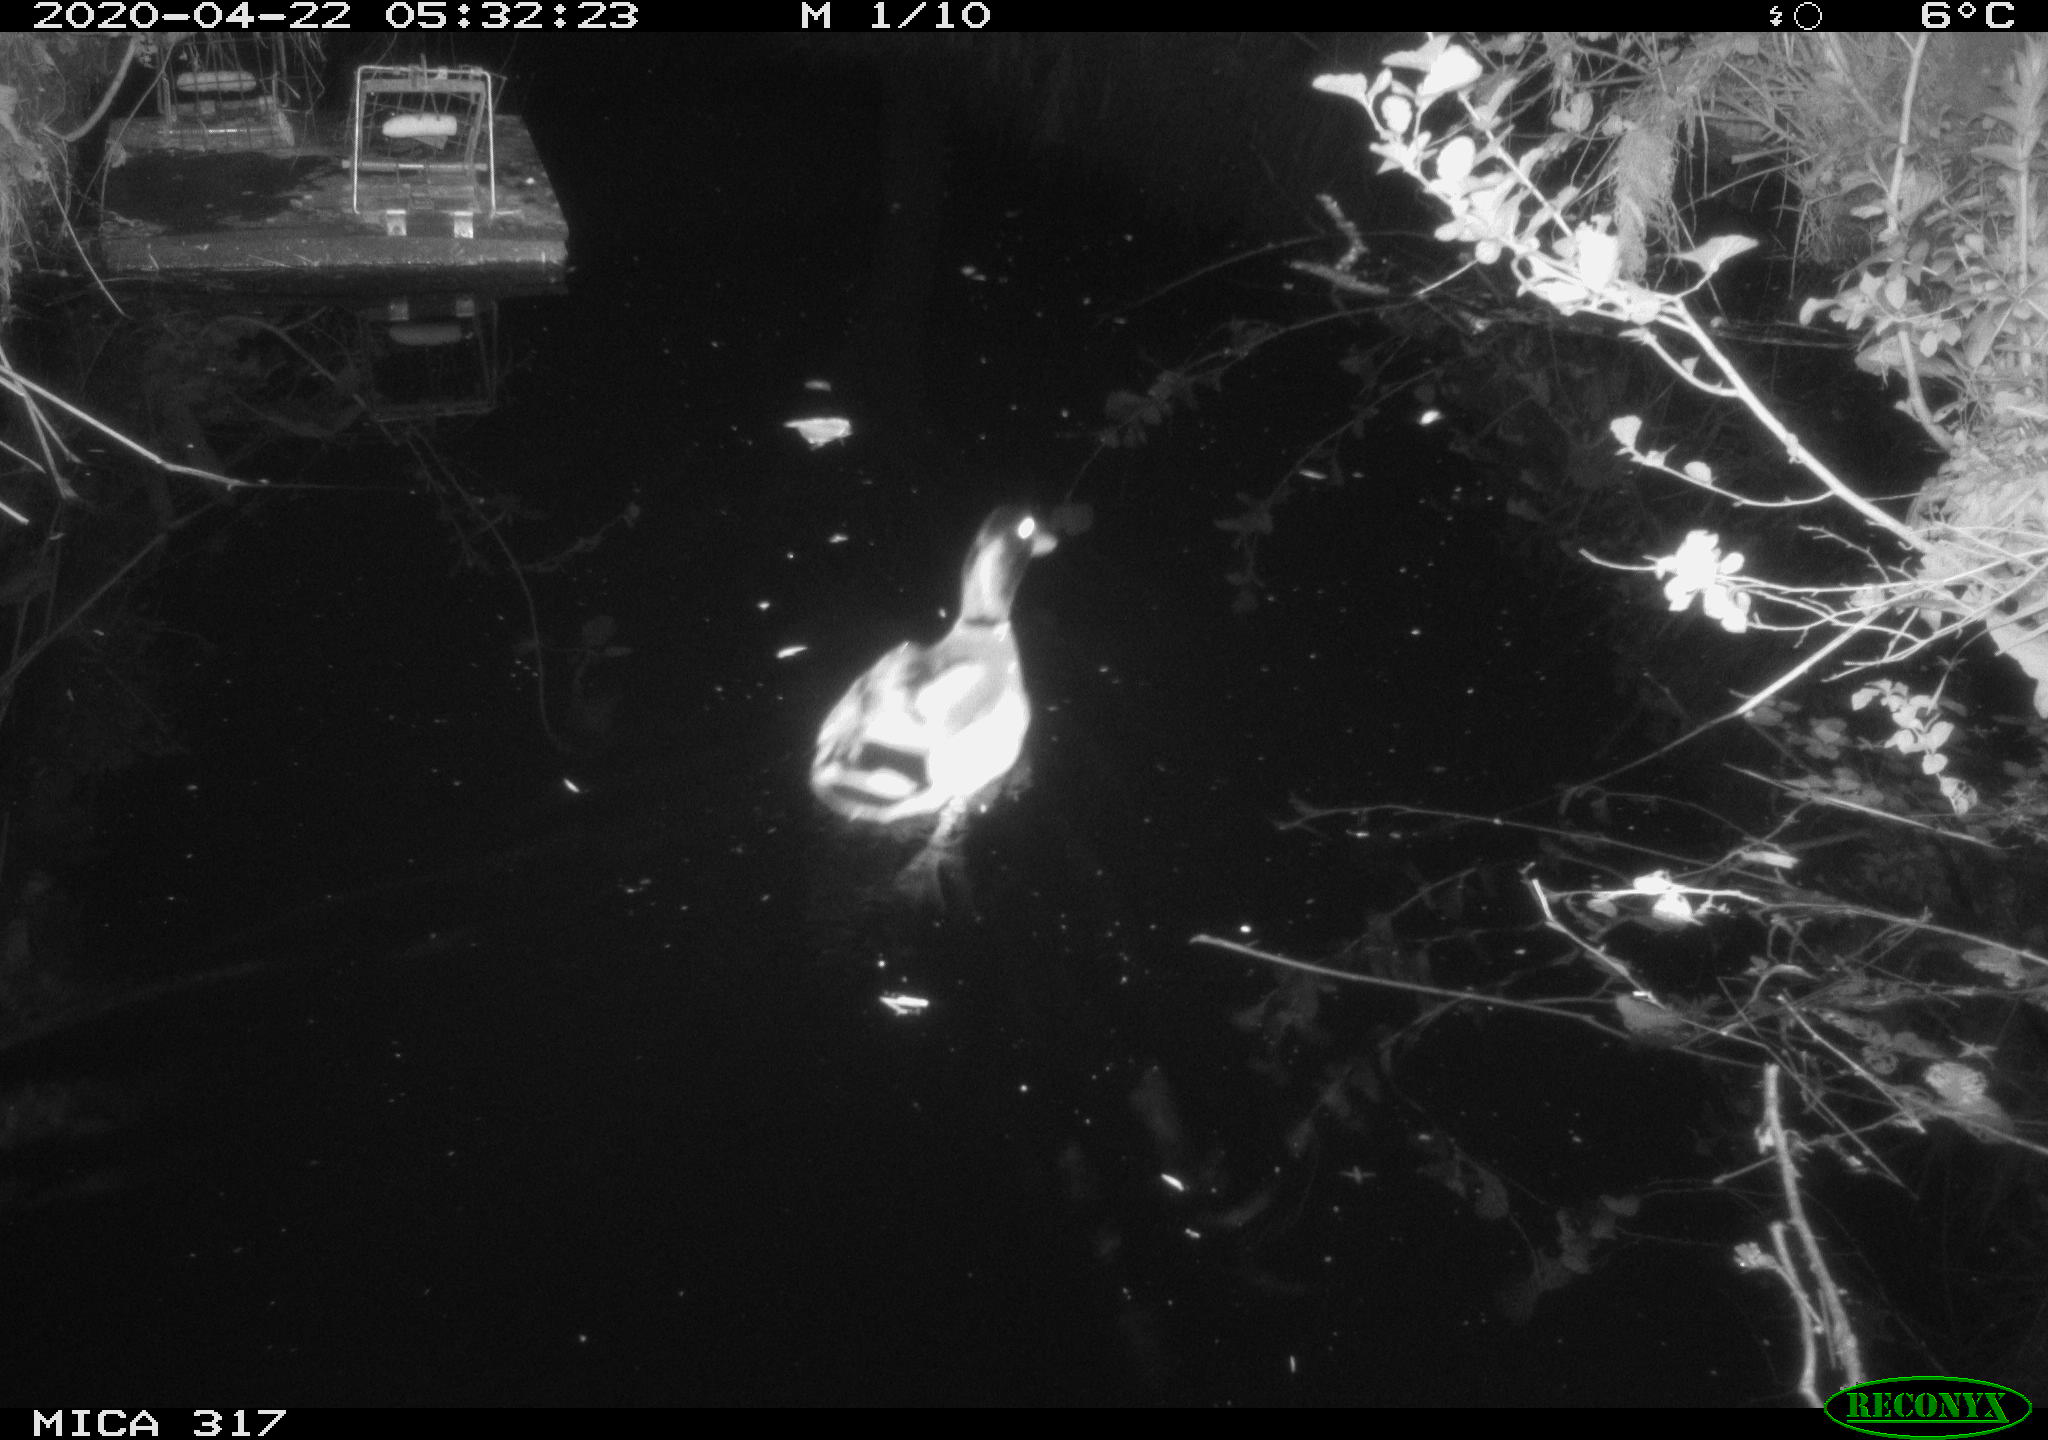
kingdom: Animalia
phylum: Chordata
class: Aves
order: Anseriformes
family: Anatidae
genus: Anas
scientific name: Anas platyrhynchos
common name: Mallard
